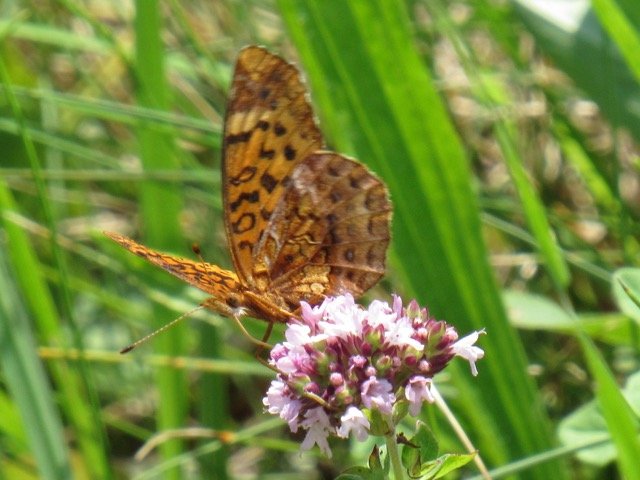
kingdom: Animalia
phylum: Arthropoda
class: Insecta
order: Lepidoptera
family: Nymphalidae
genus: Clossiana
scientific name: Clossiana toddi
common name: Meadow Fritillary
